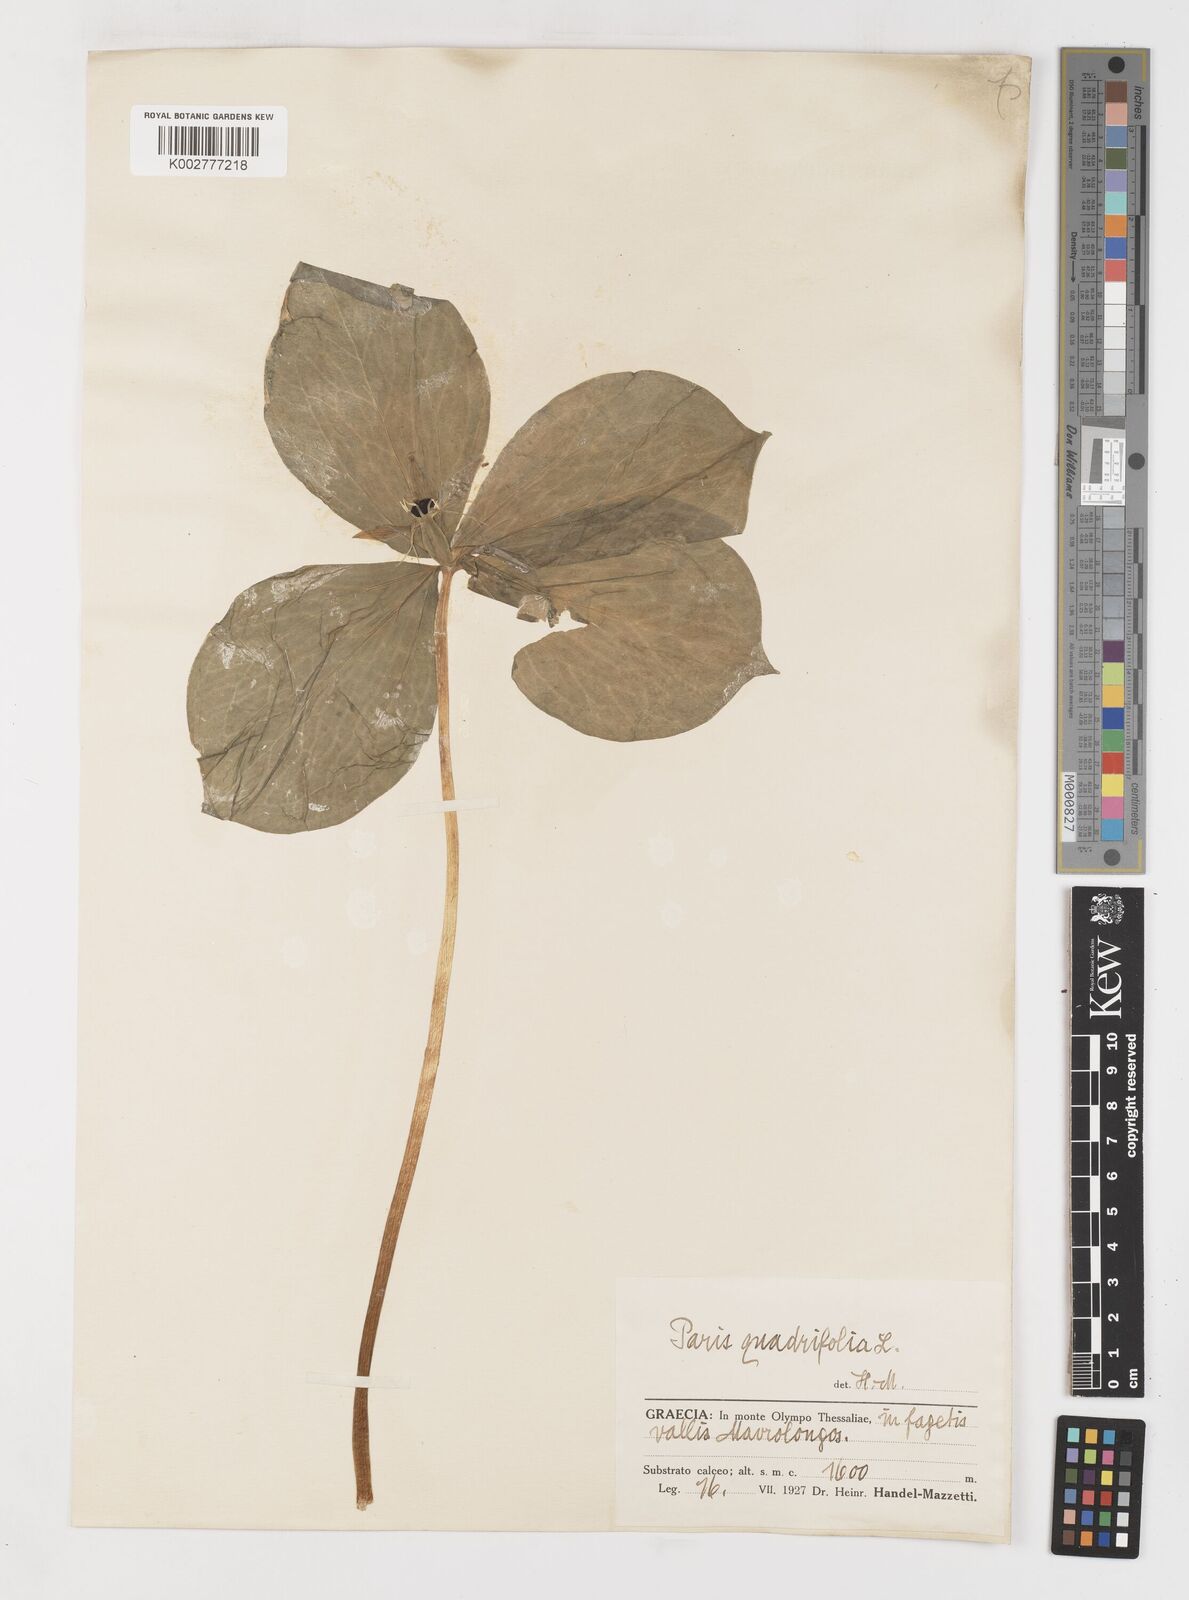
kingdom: Plantae
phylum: Tracheophyta
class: Liliopsida
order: Liliales
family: Melanthiaceae
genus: Paris
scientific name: Paris quadrifolia
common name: Herb-paris
